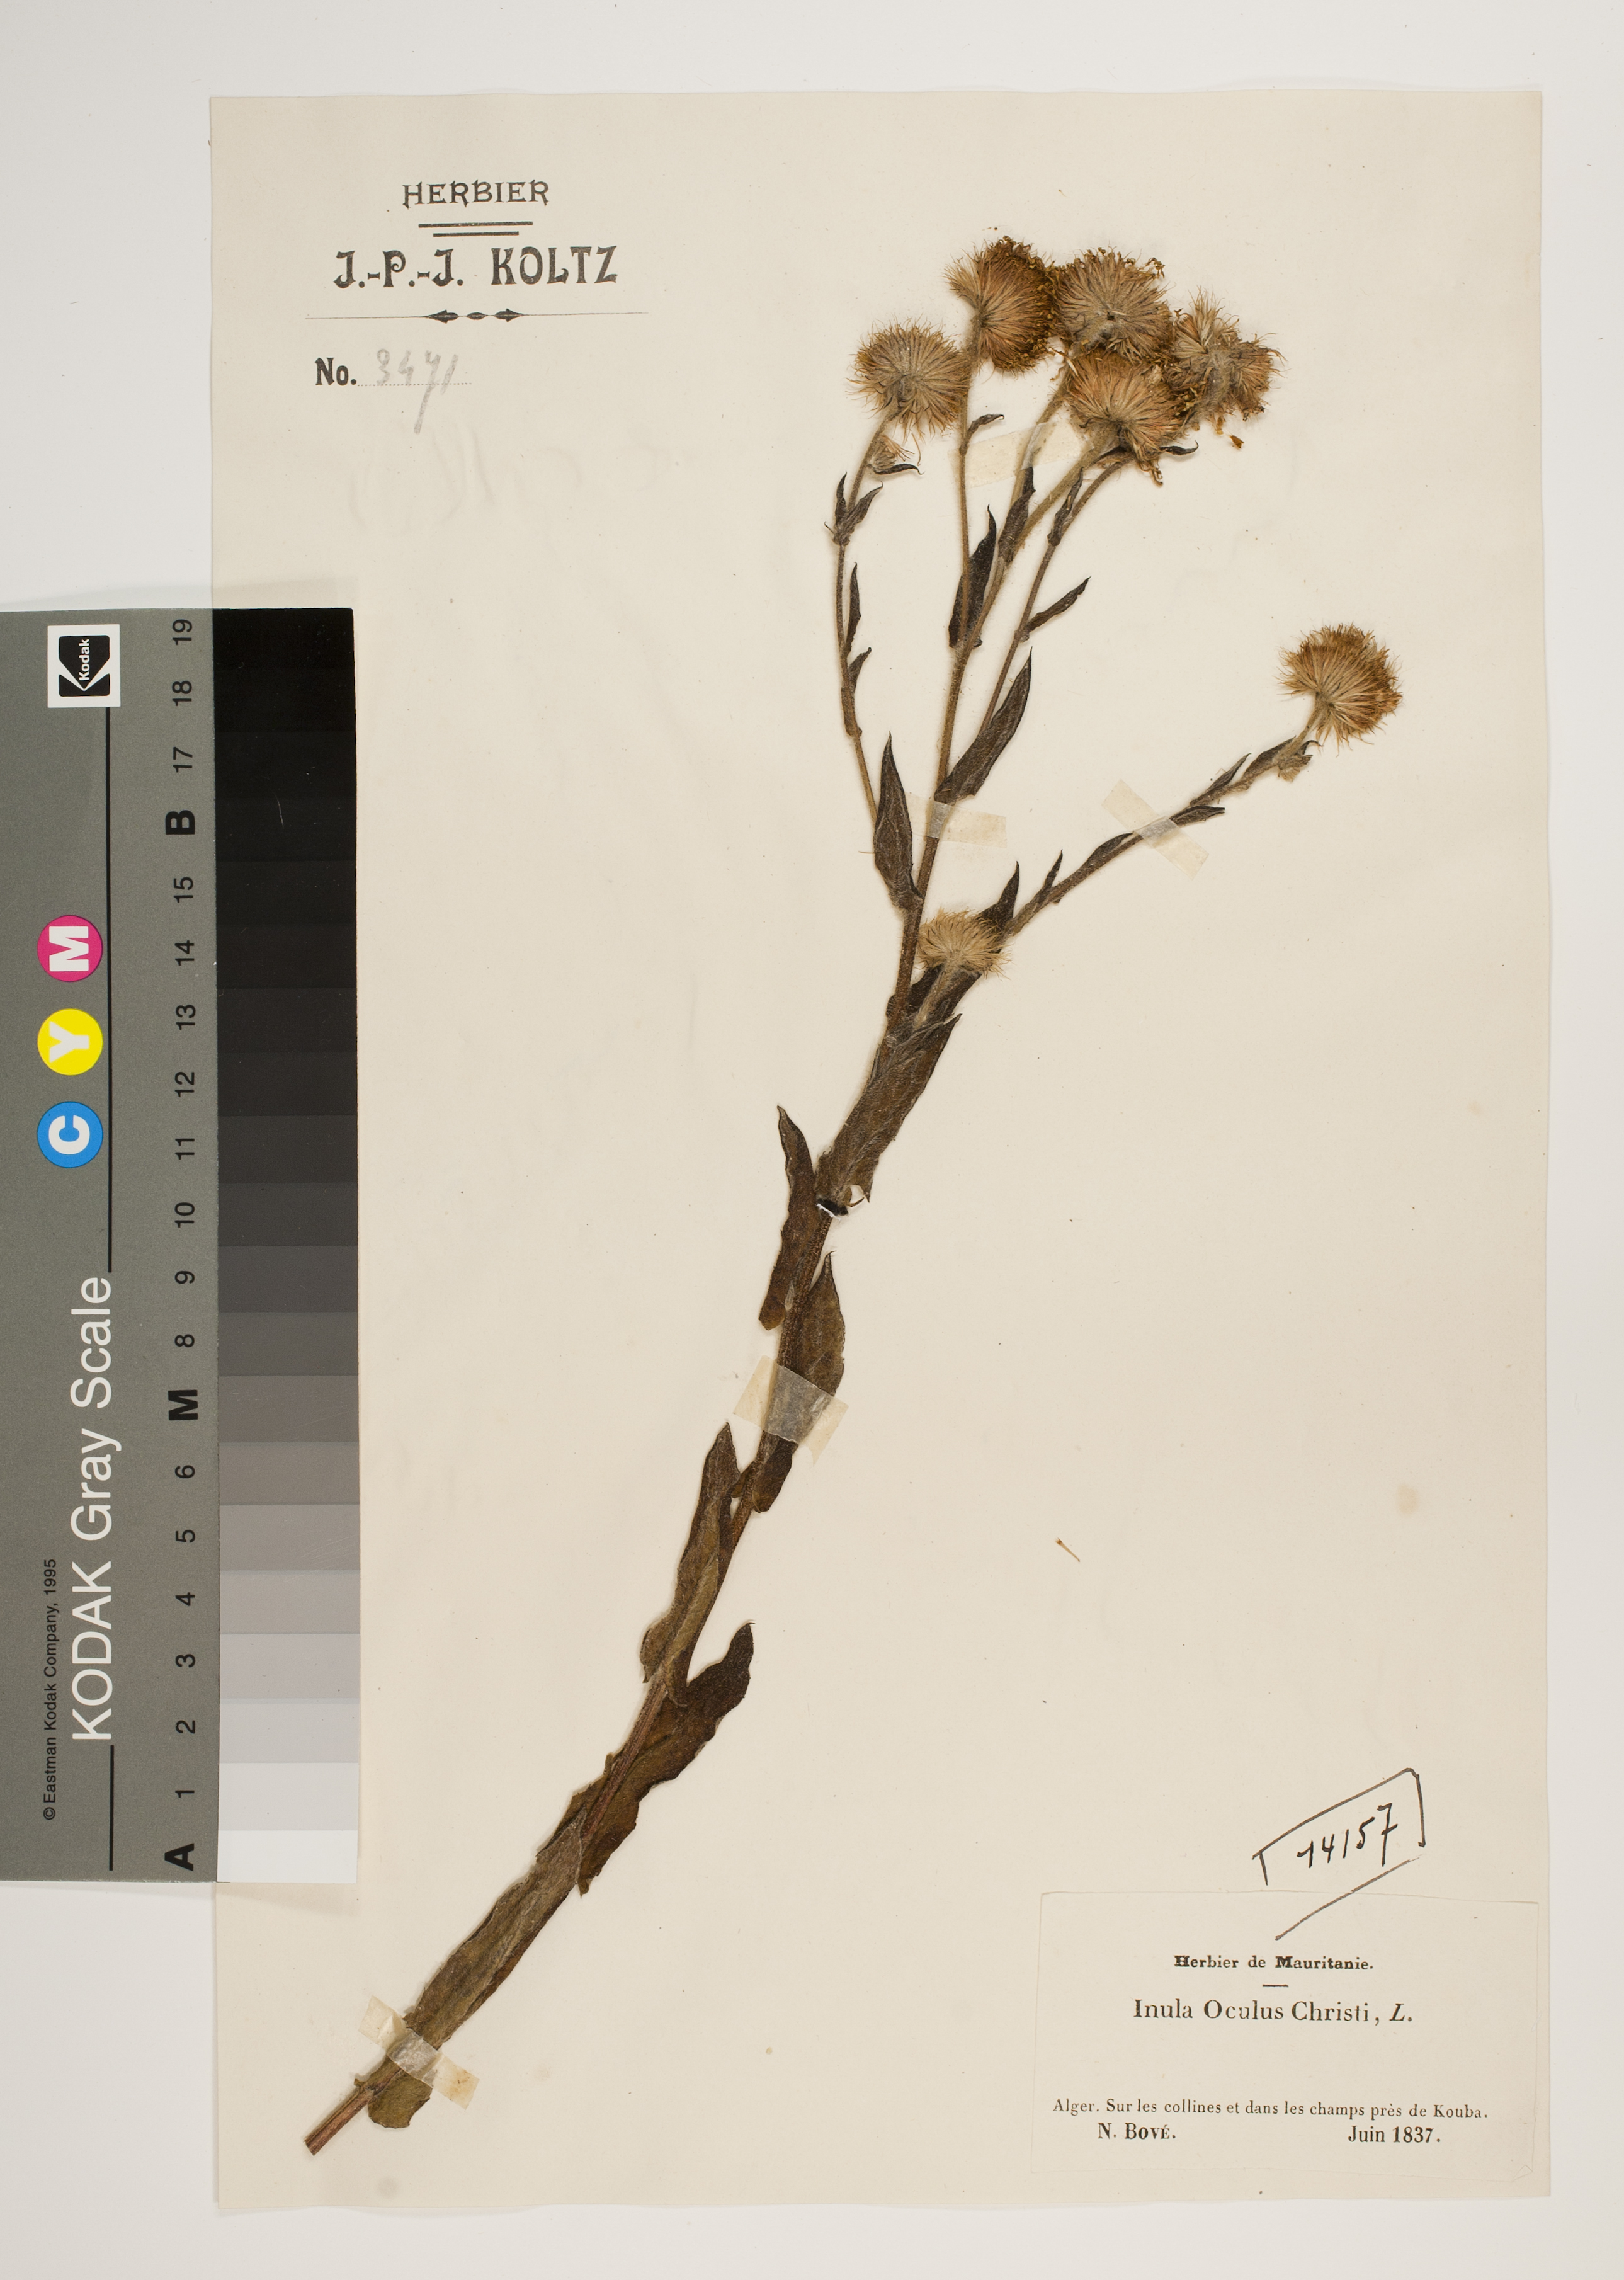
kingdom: Plantae
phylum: Tracheophyta
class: Magnoliopsida
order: Asterales
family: Asteraceae
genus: Pentanema
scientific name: Pentanema oculus-christi
